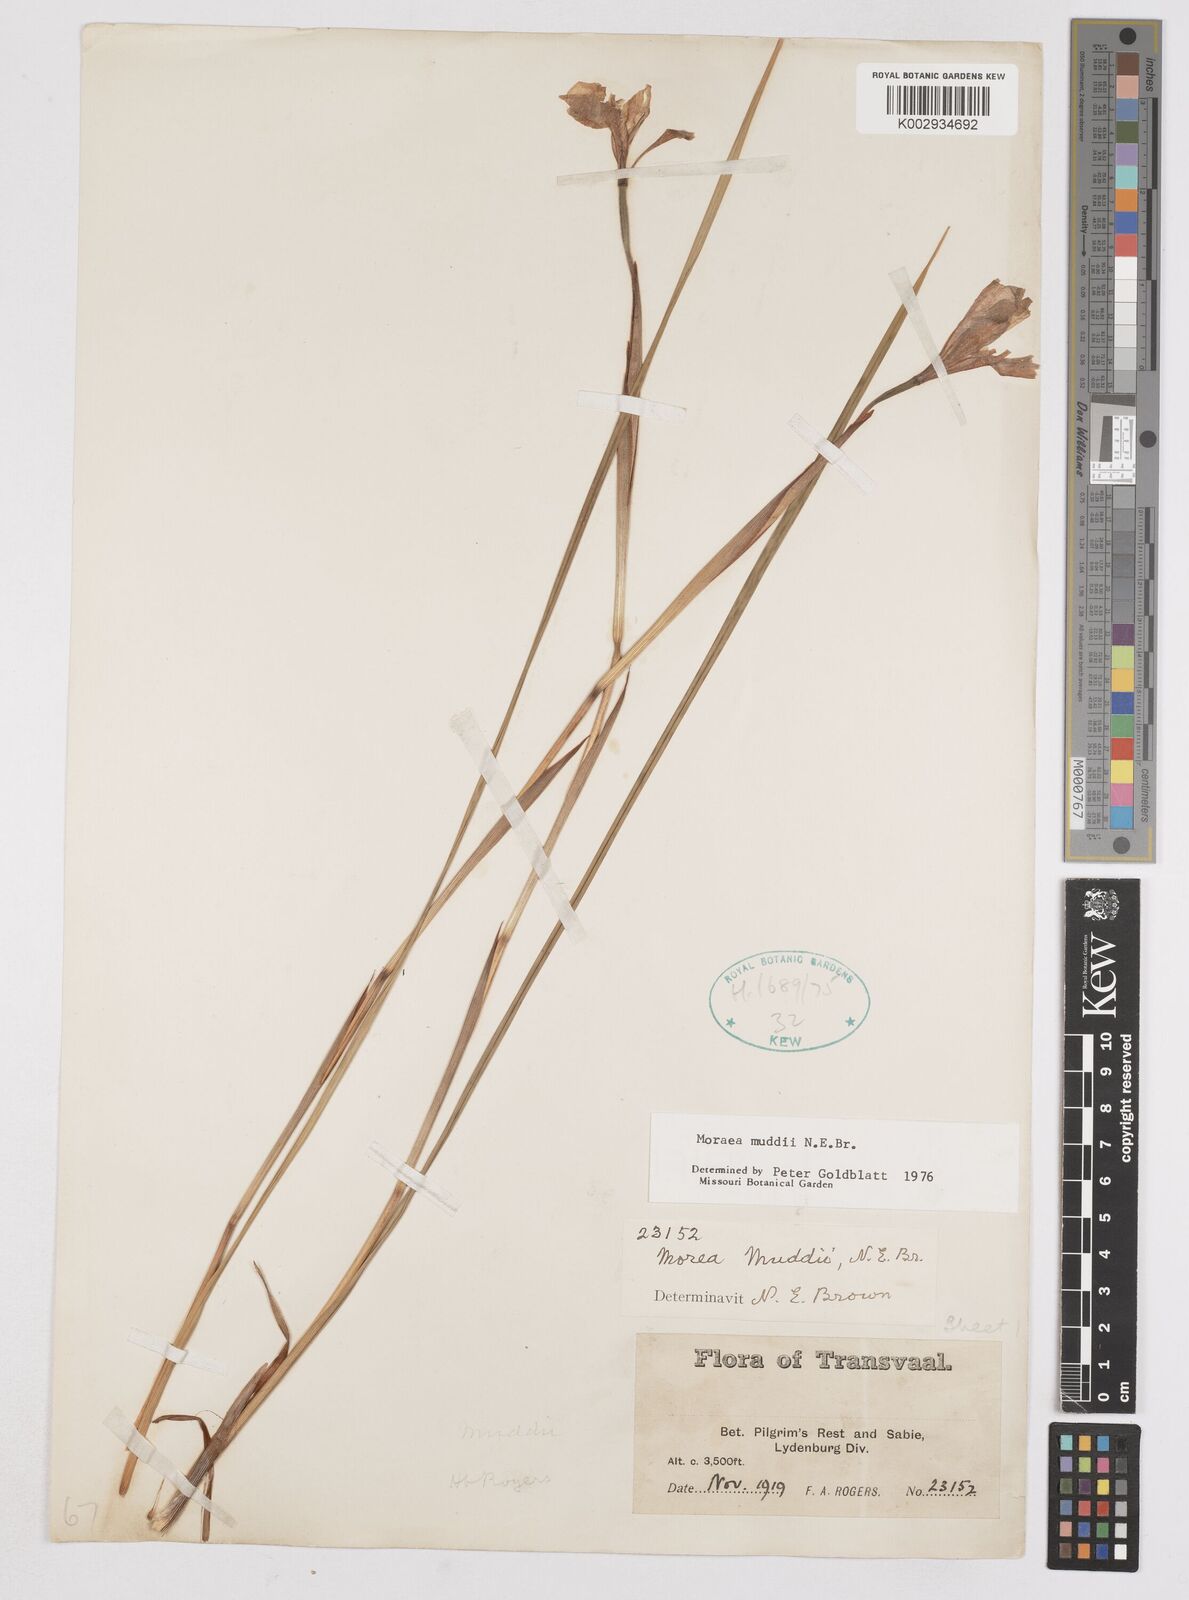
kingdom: Plantae
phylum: Tracheophyta
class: Liliopsida
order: Asparagales
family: Iridaceae
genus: Moraea
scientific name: Moraea muddii
